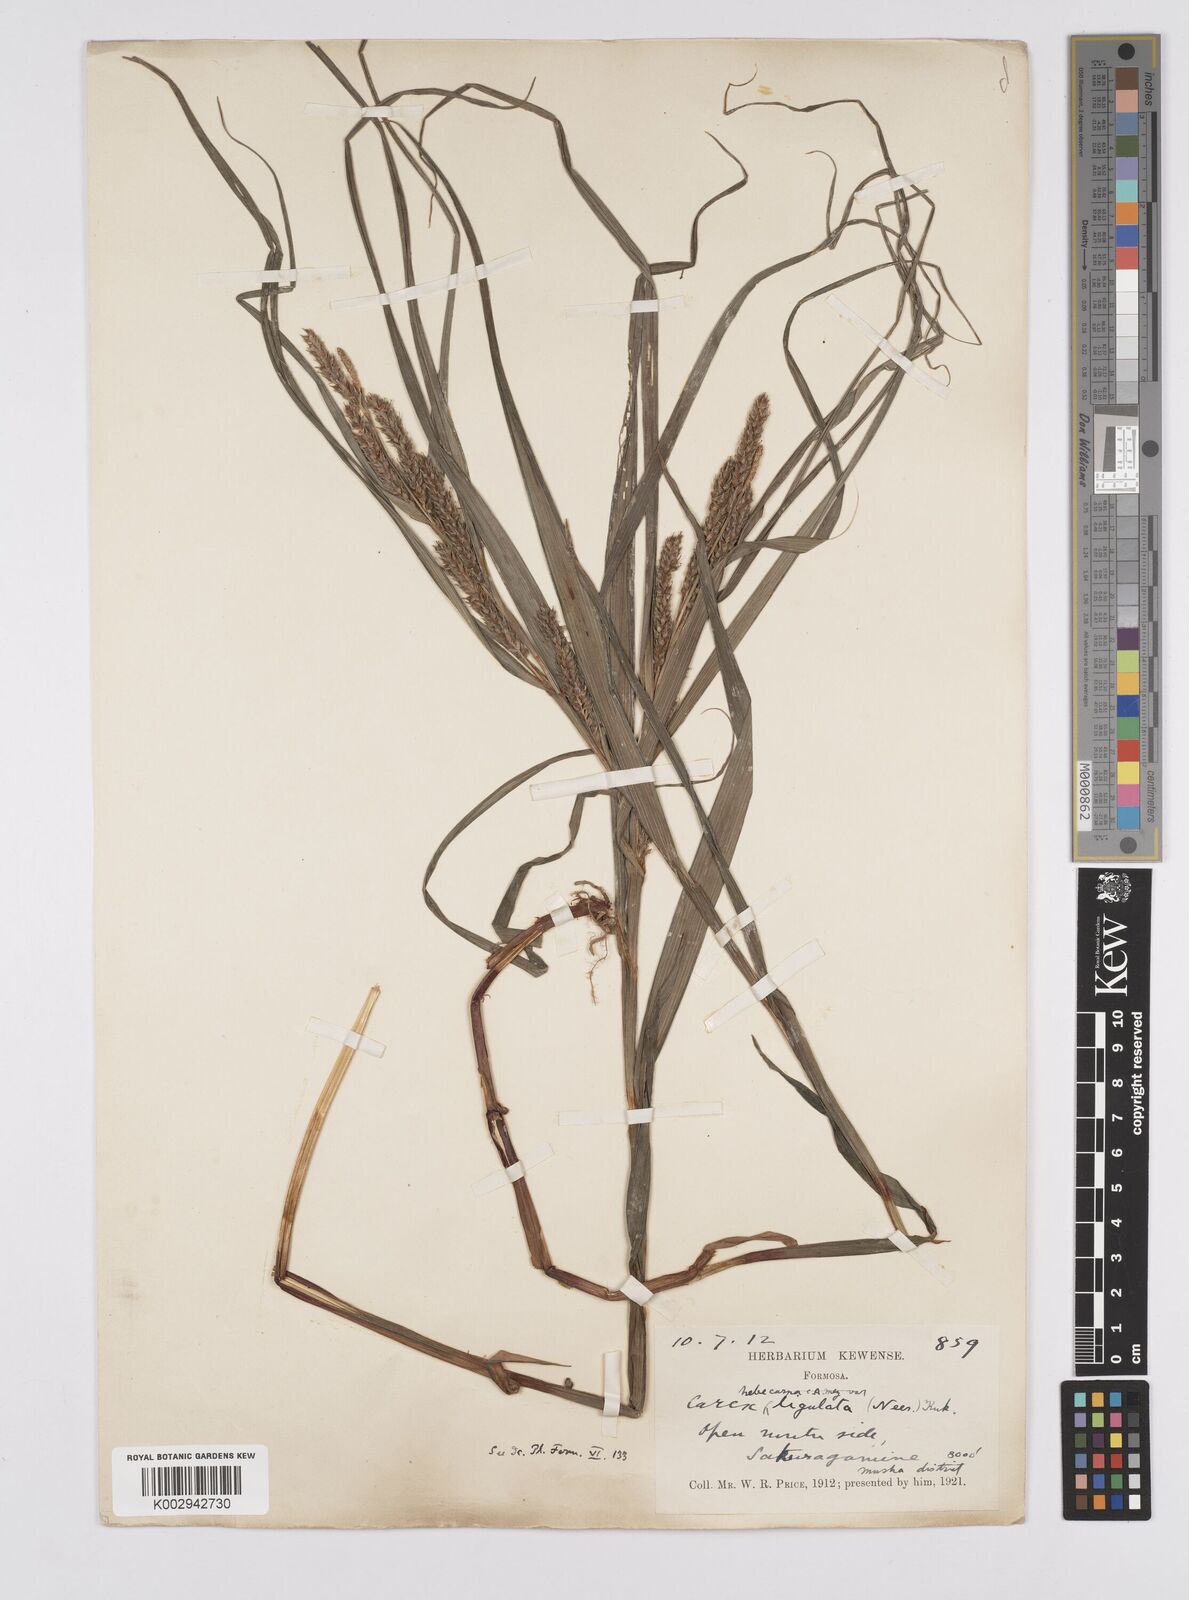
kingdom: Plantae
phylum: Tracheophyta
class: Liliopsida
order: Poales
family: Cyperaceae
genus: Carex
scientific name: Carex ligulata
